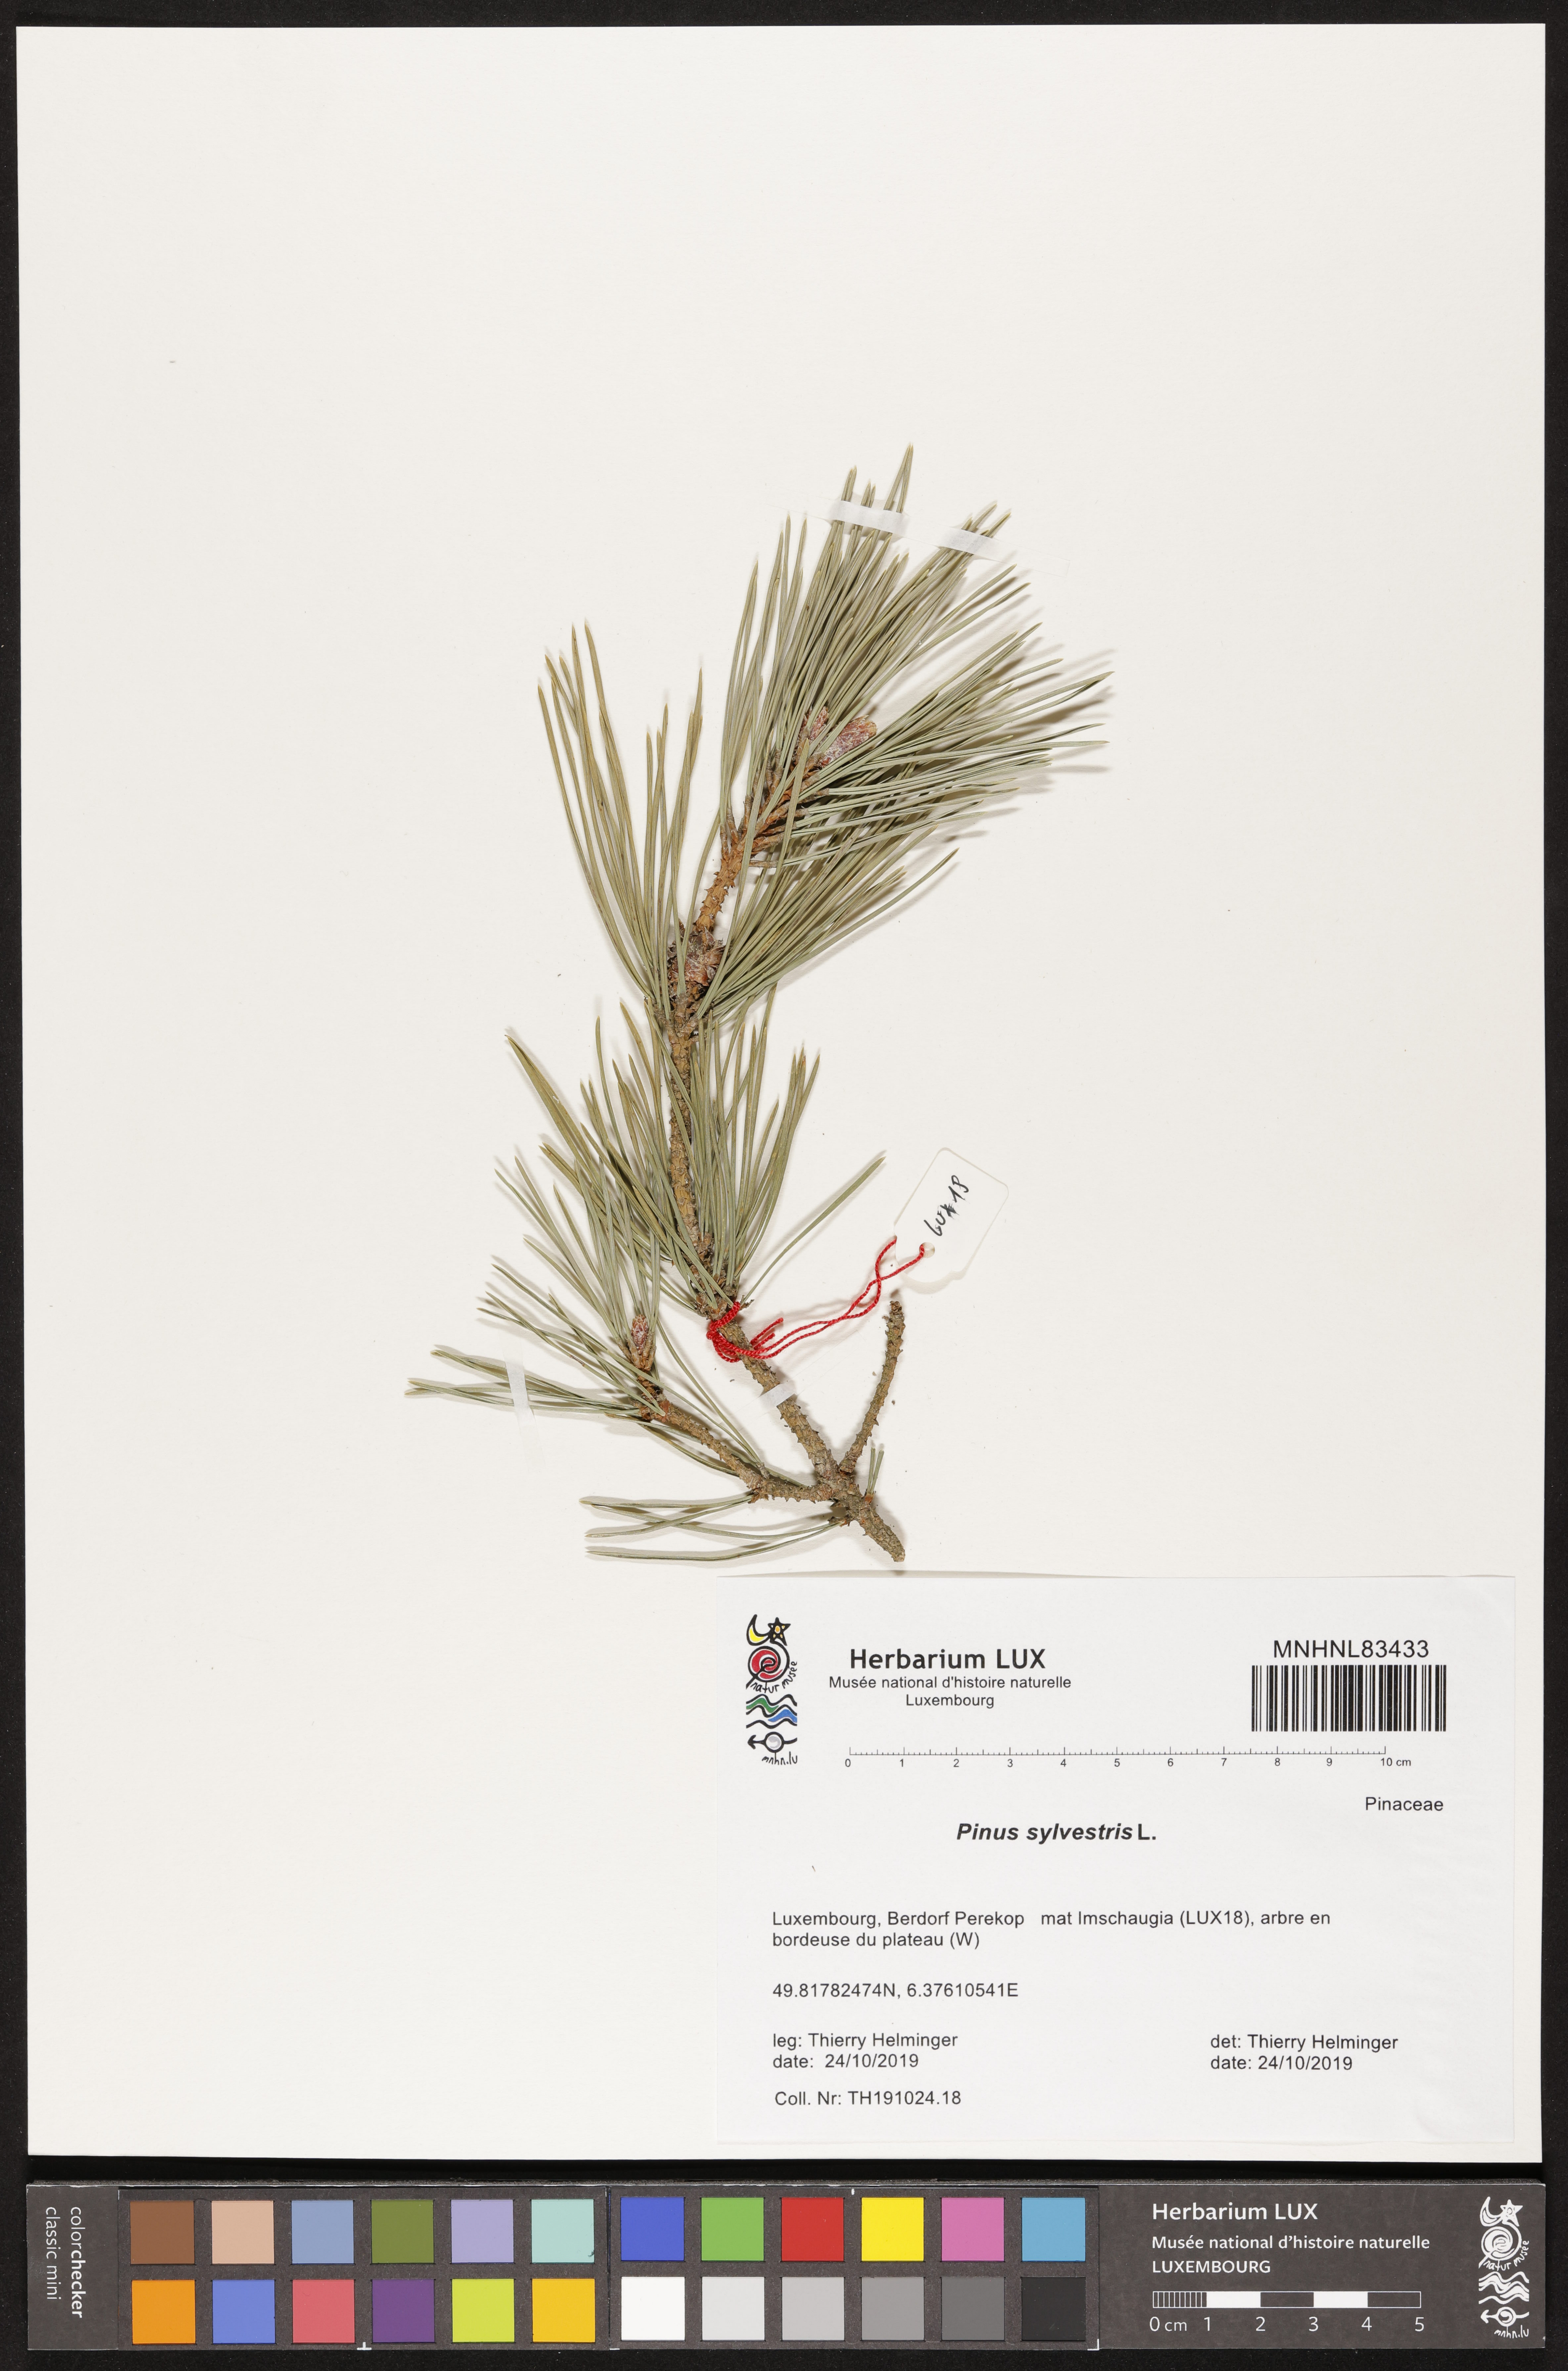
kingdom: Plantae
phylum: Tracheophyta
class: Pinopsida
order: Pinales
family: Pinaceae
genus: Pinus
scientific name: Pinus sylvestris
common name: Scots pine
